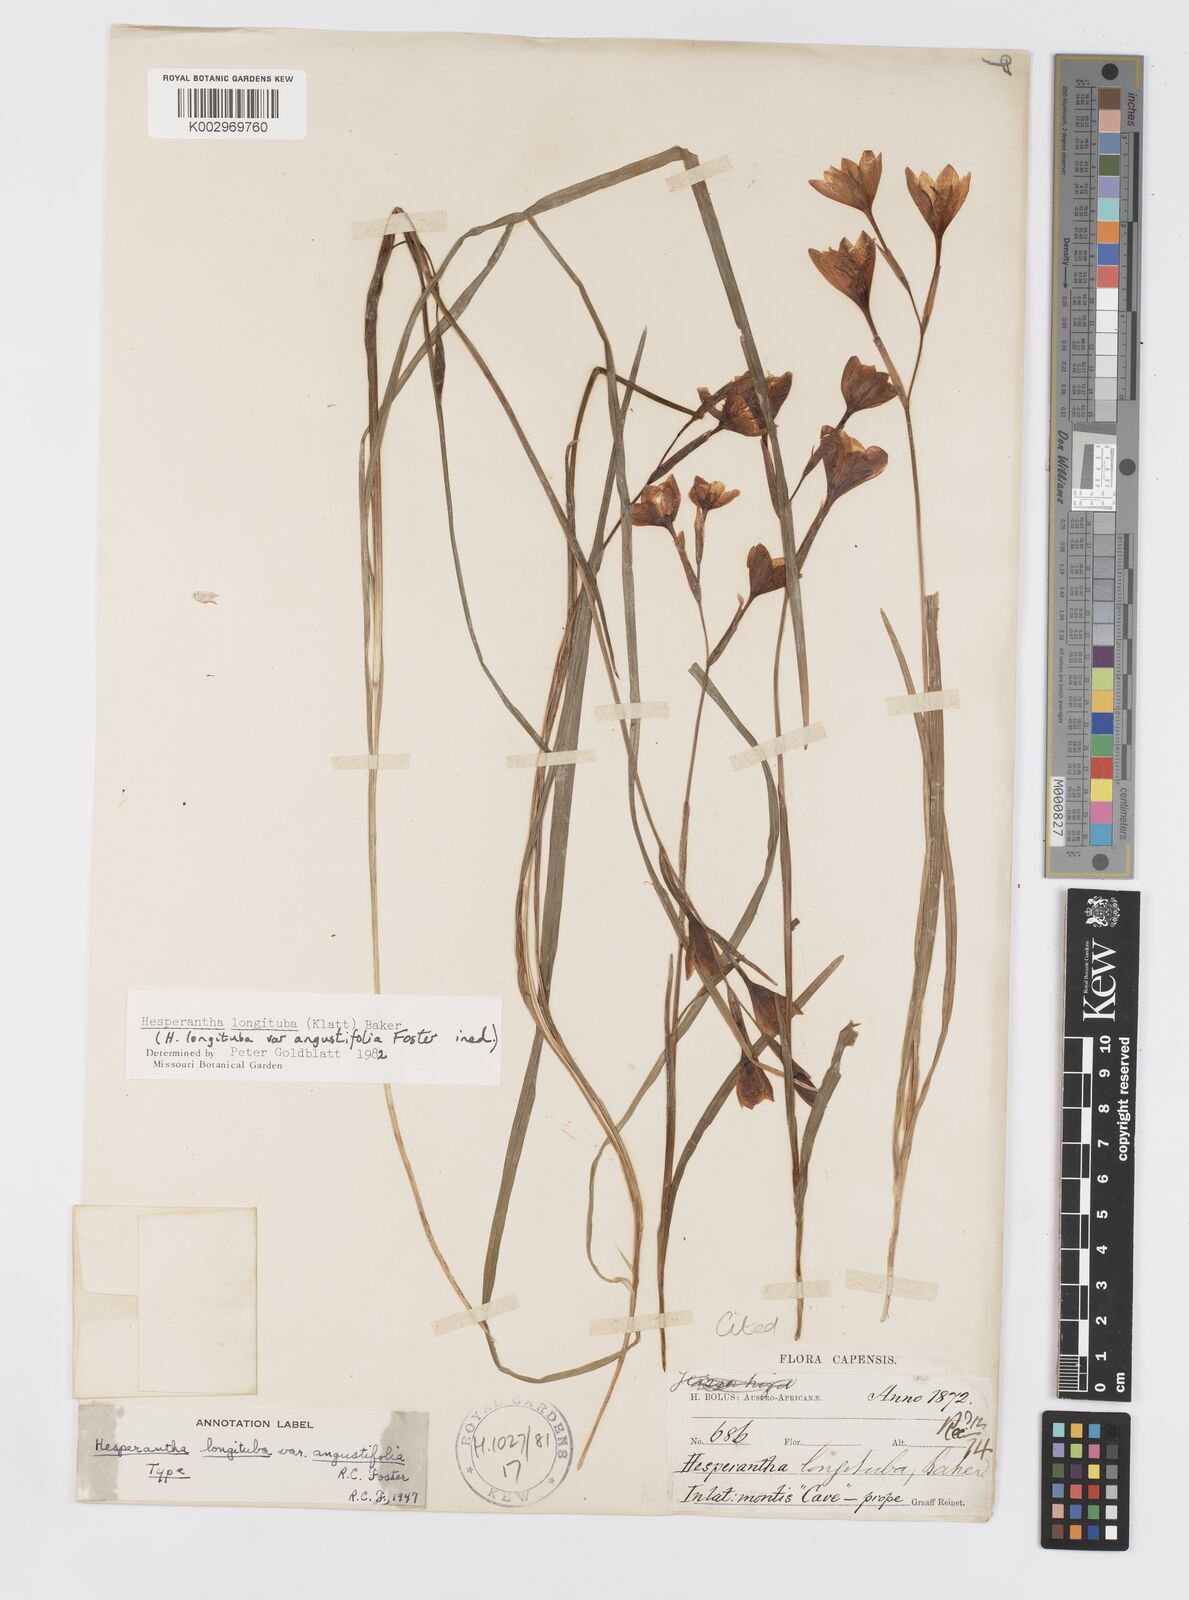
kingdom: Plantae
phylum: Tracheophyta
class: Liliopsida
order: Asparagales
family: Iridaceae
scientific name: Iridaceae
